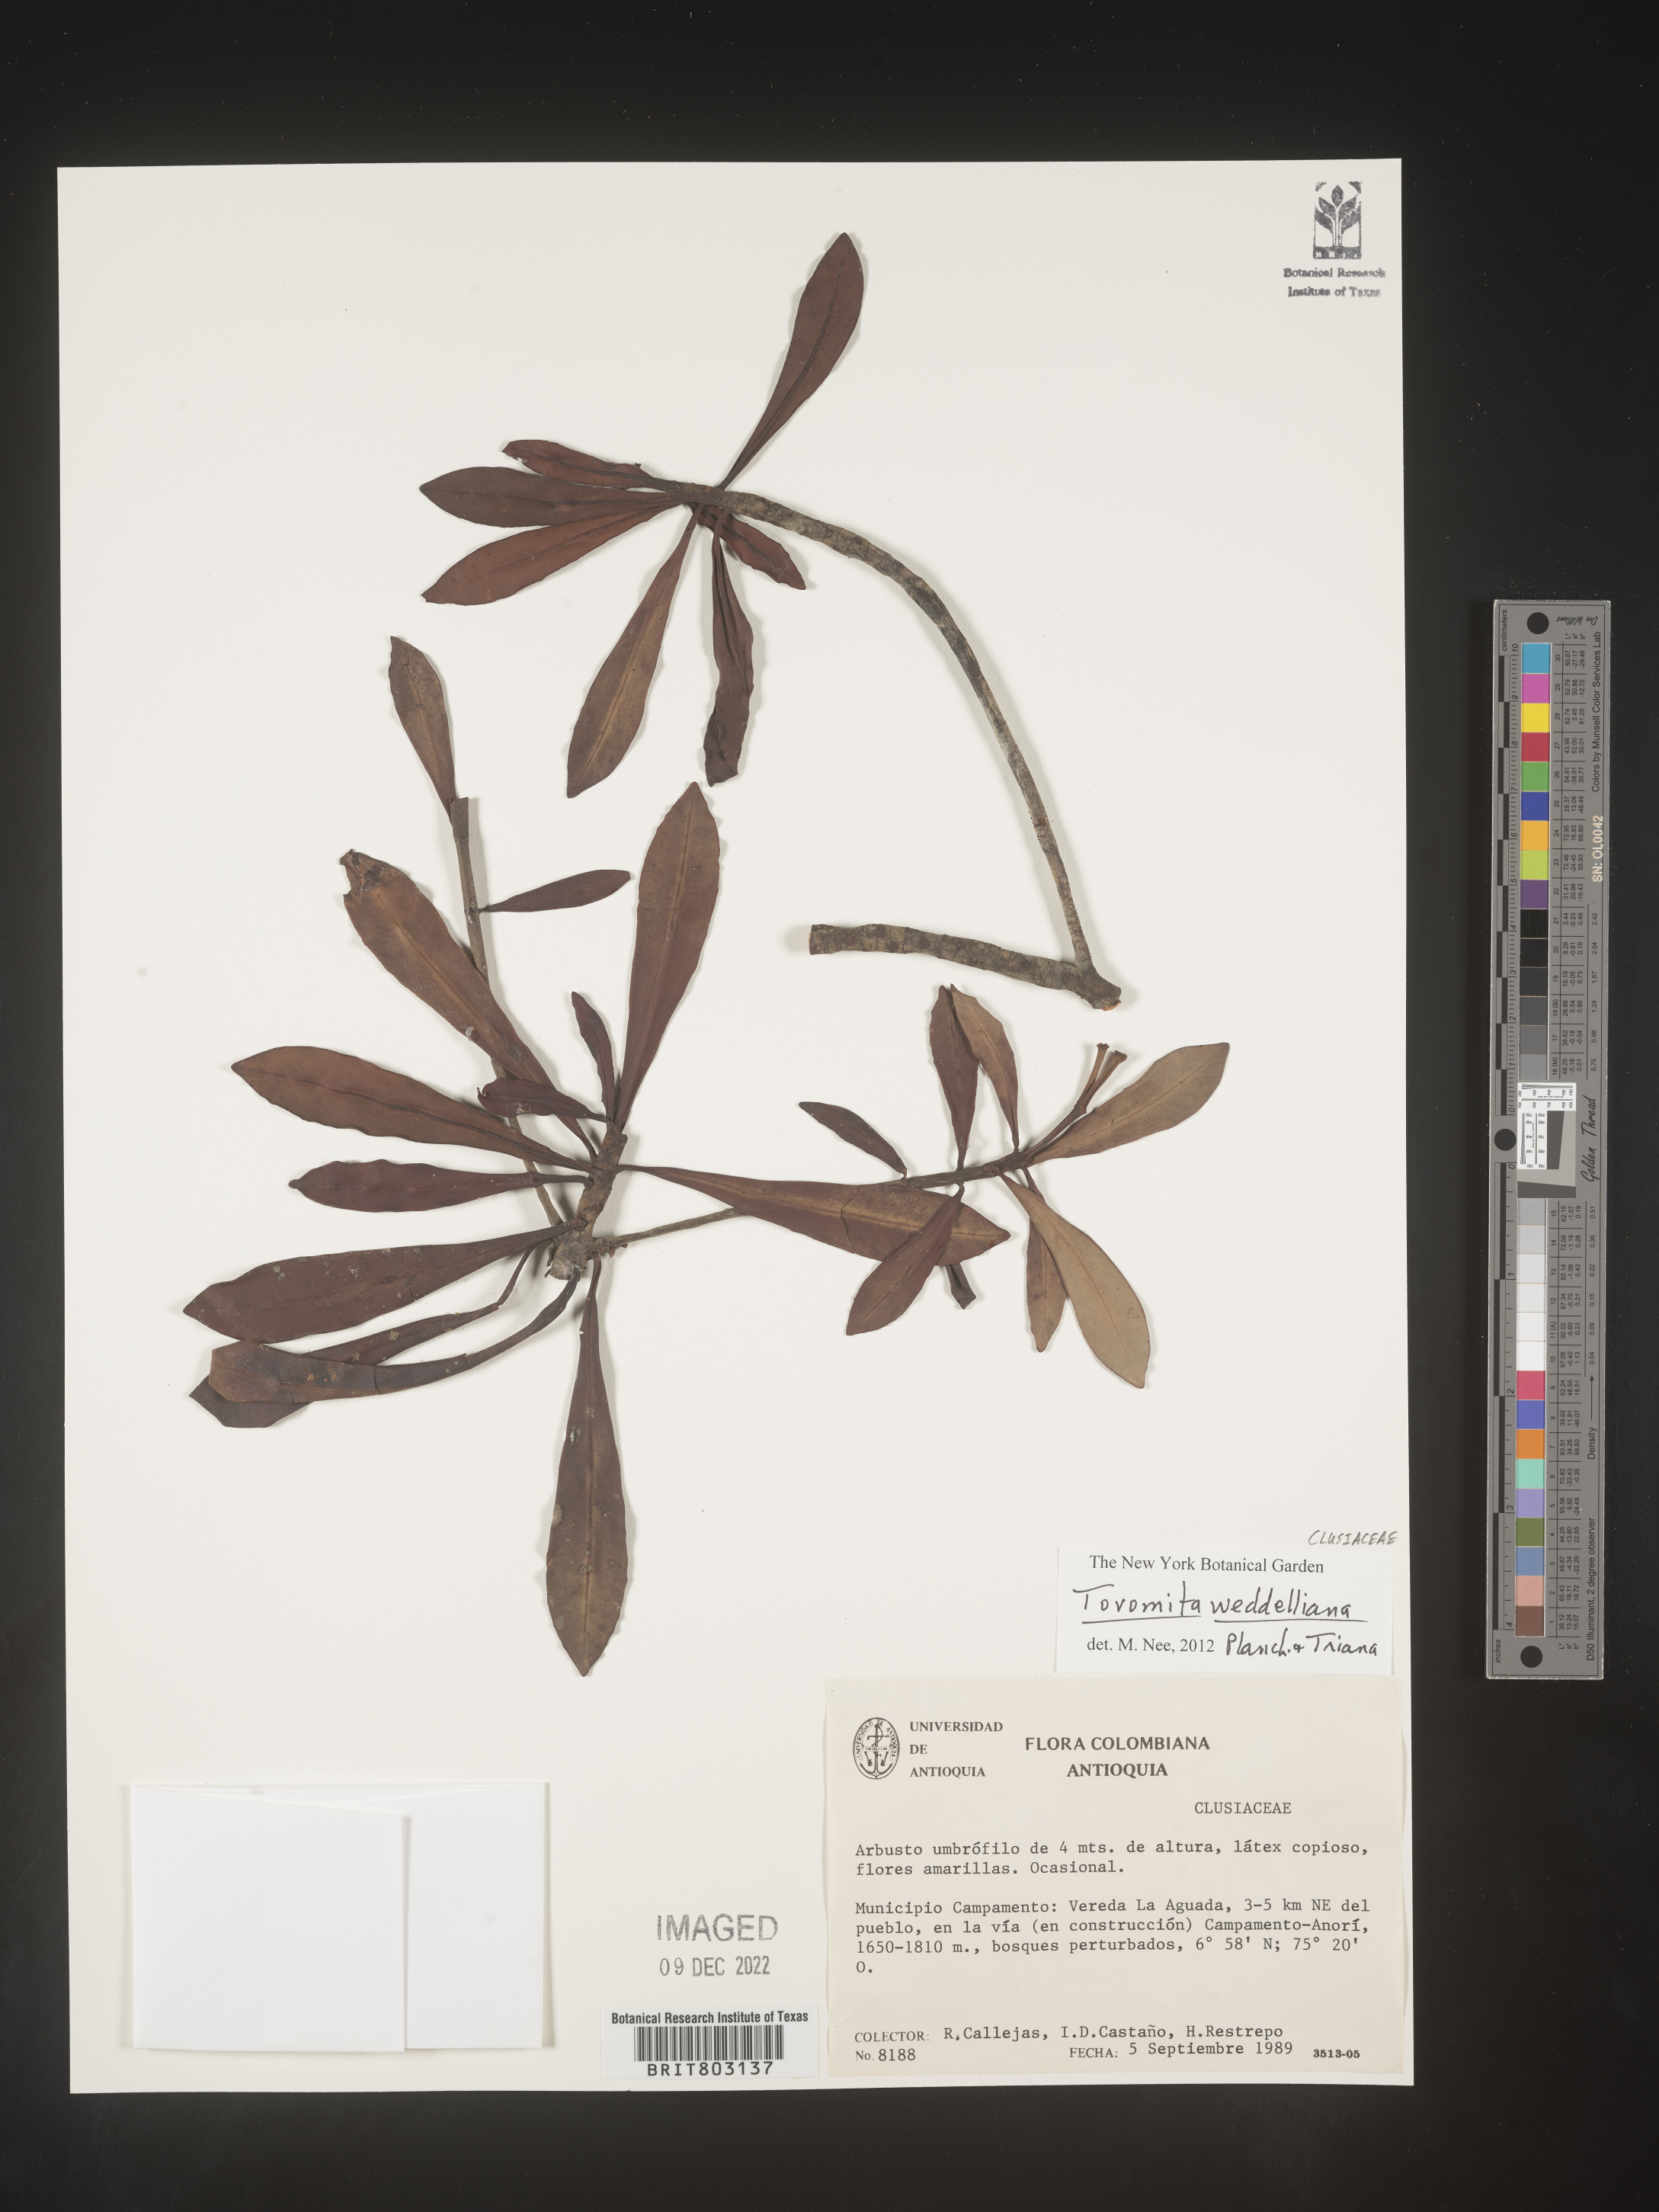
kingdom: Plantae
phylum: Tracheophyta
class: Magnoliopsida
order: Malpighiales
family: Clusiaceae
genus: Arawakia
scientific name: Arawakia weddelliana
